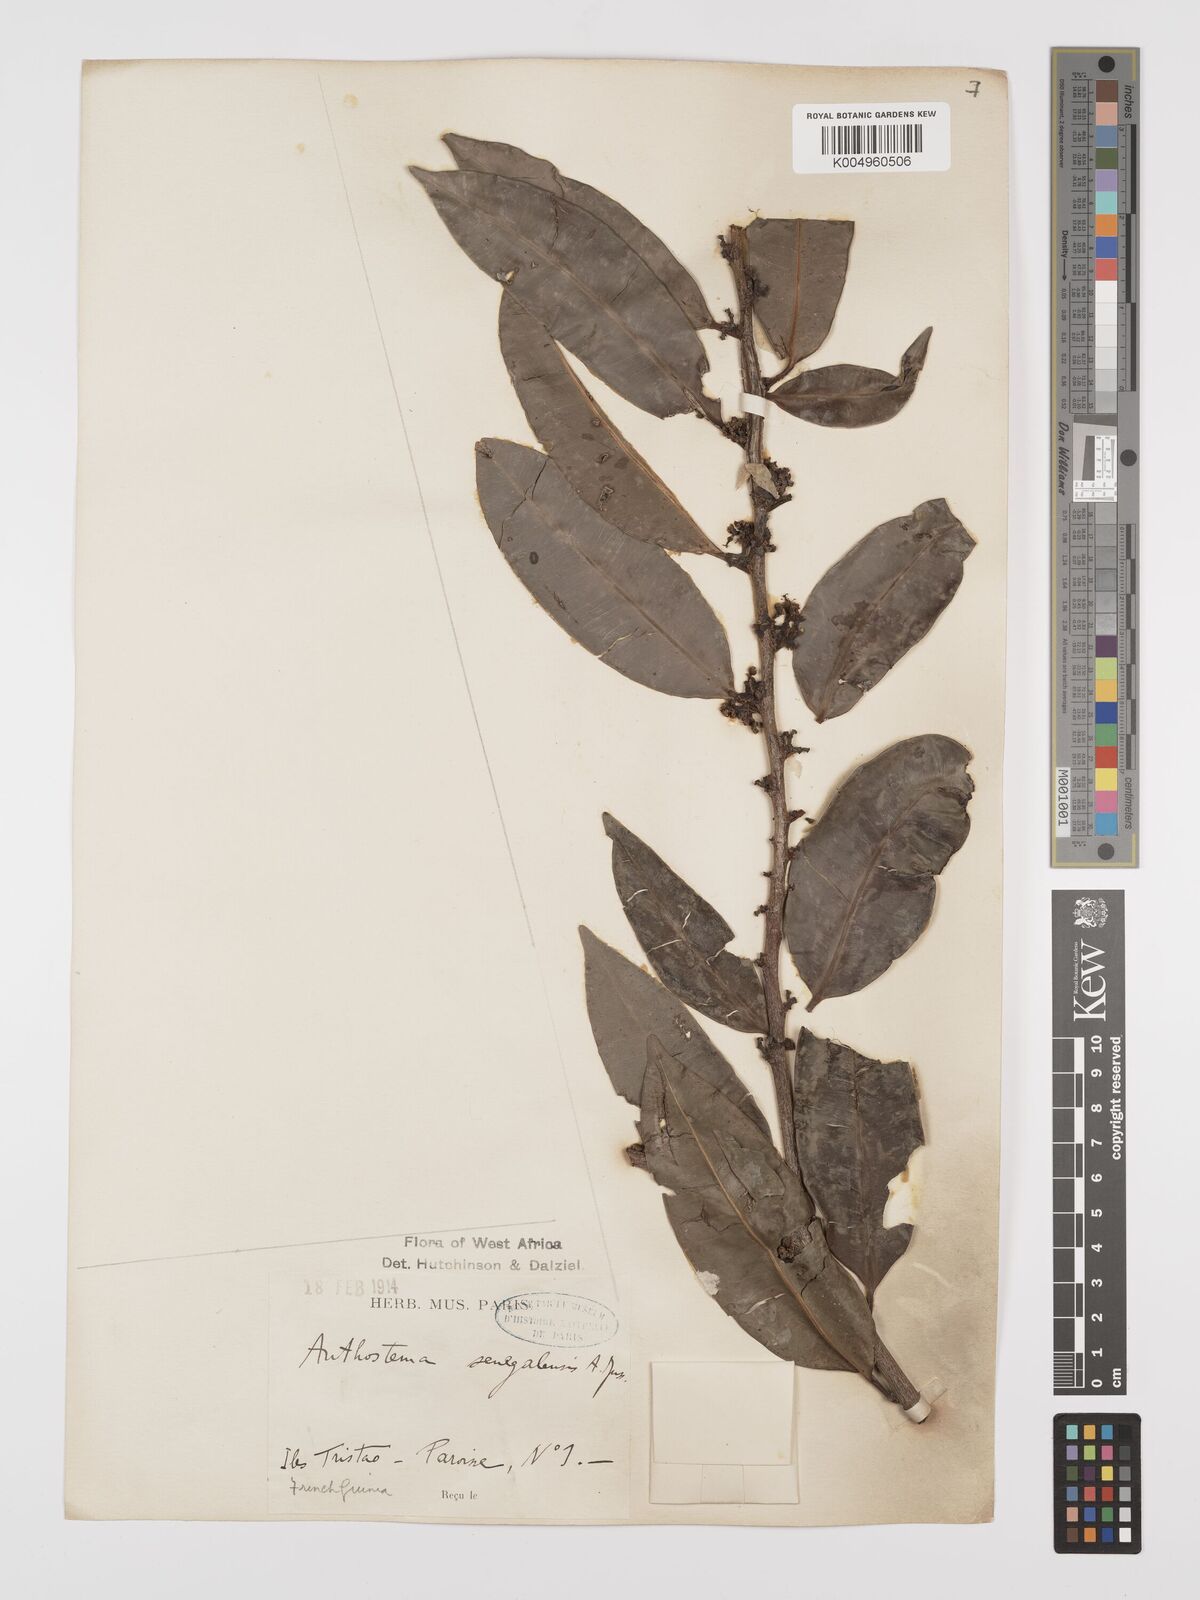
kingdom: Plantae
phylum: Tracheophyta
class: Magnoliopsida
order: Malpighiales
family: Euphorbiaceae
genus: Anthostema
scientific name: Anthostema senegalense
